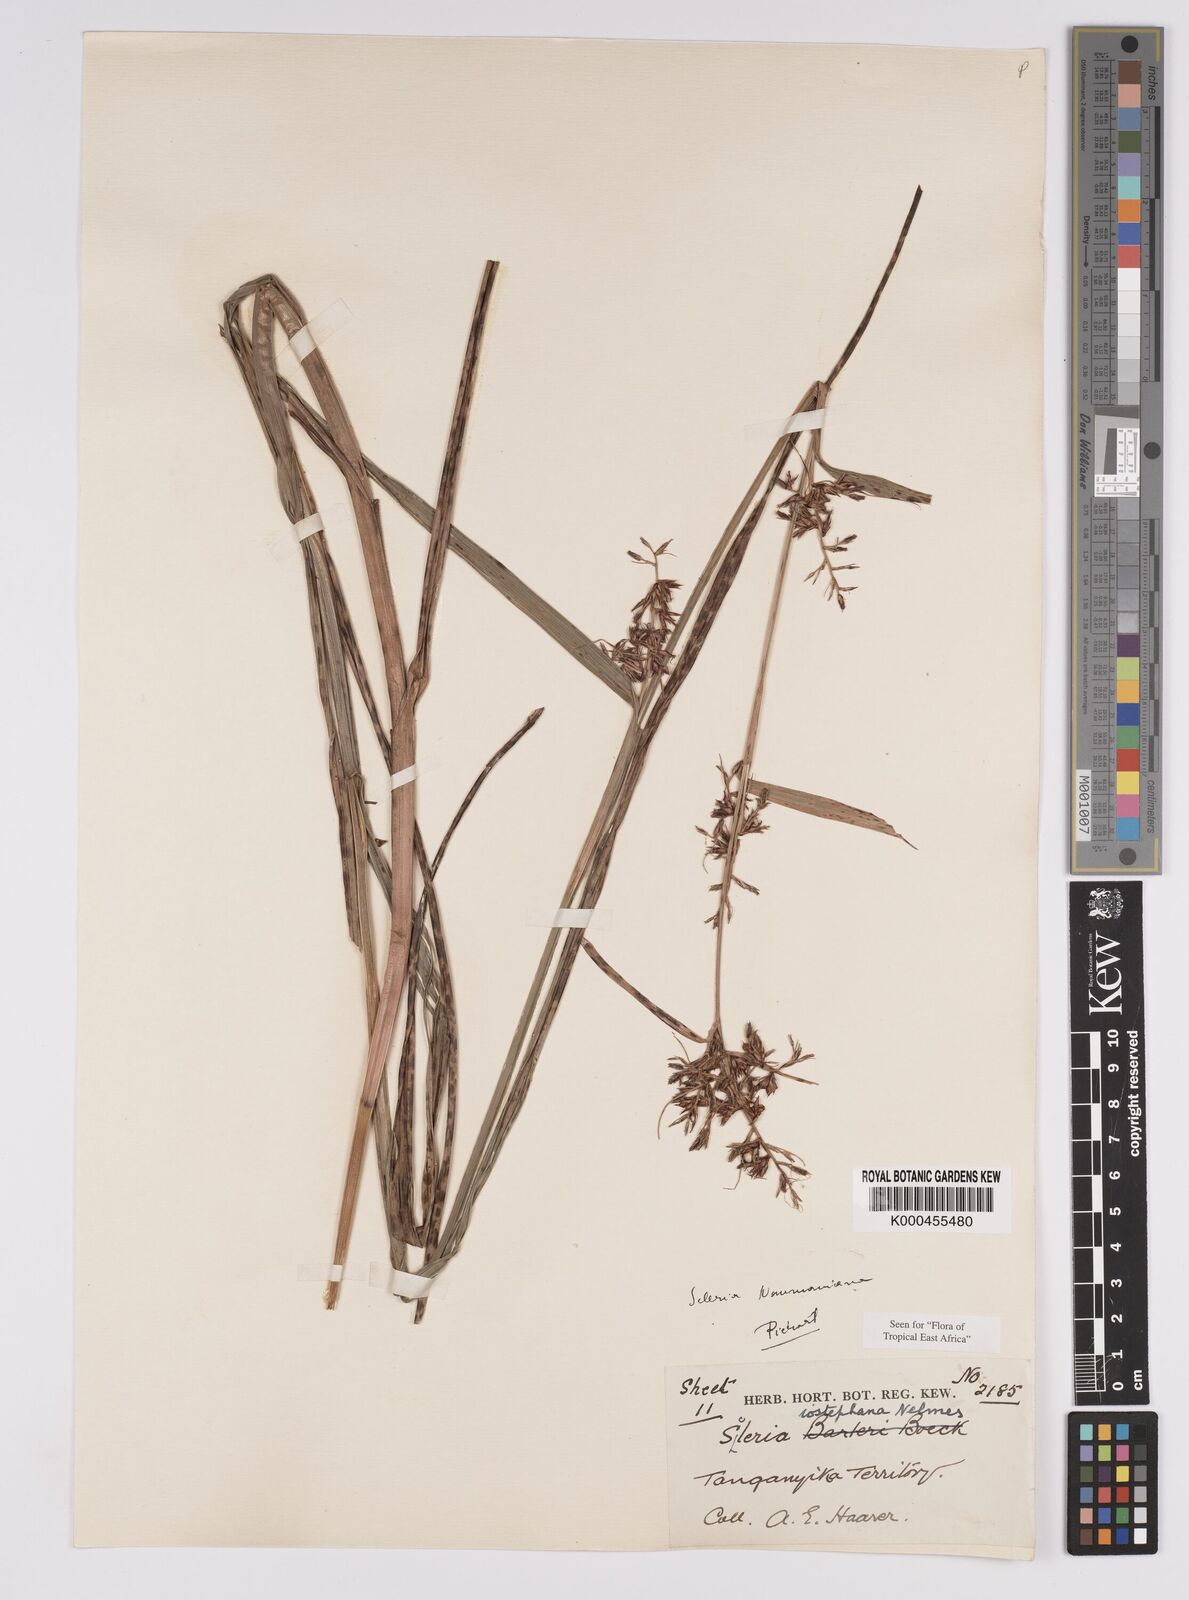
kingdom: Plantae
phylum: Tracheophyta
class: Liliopsida
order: Poales
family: Cyperaceae
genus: Scleria
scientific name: Scleria iostephana
